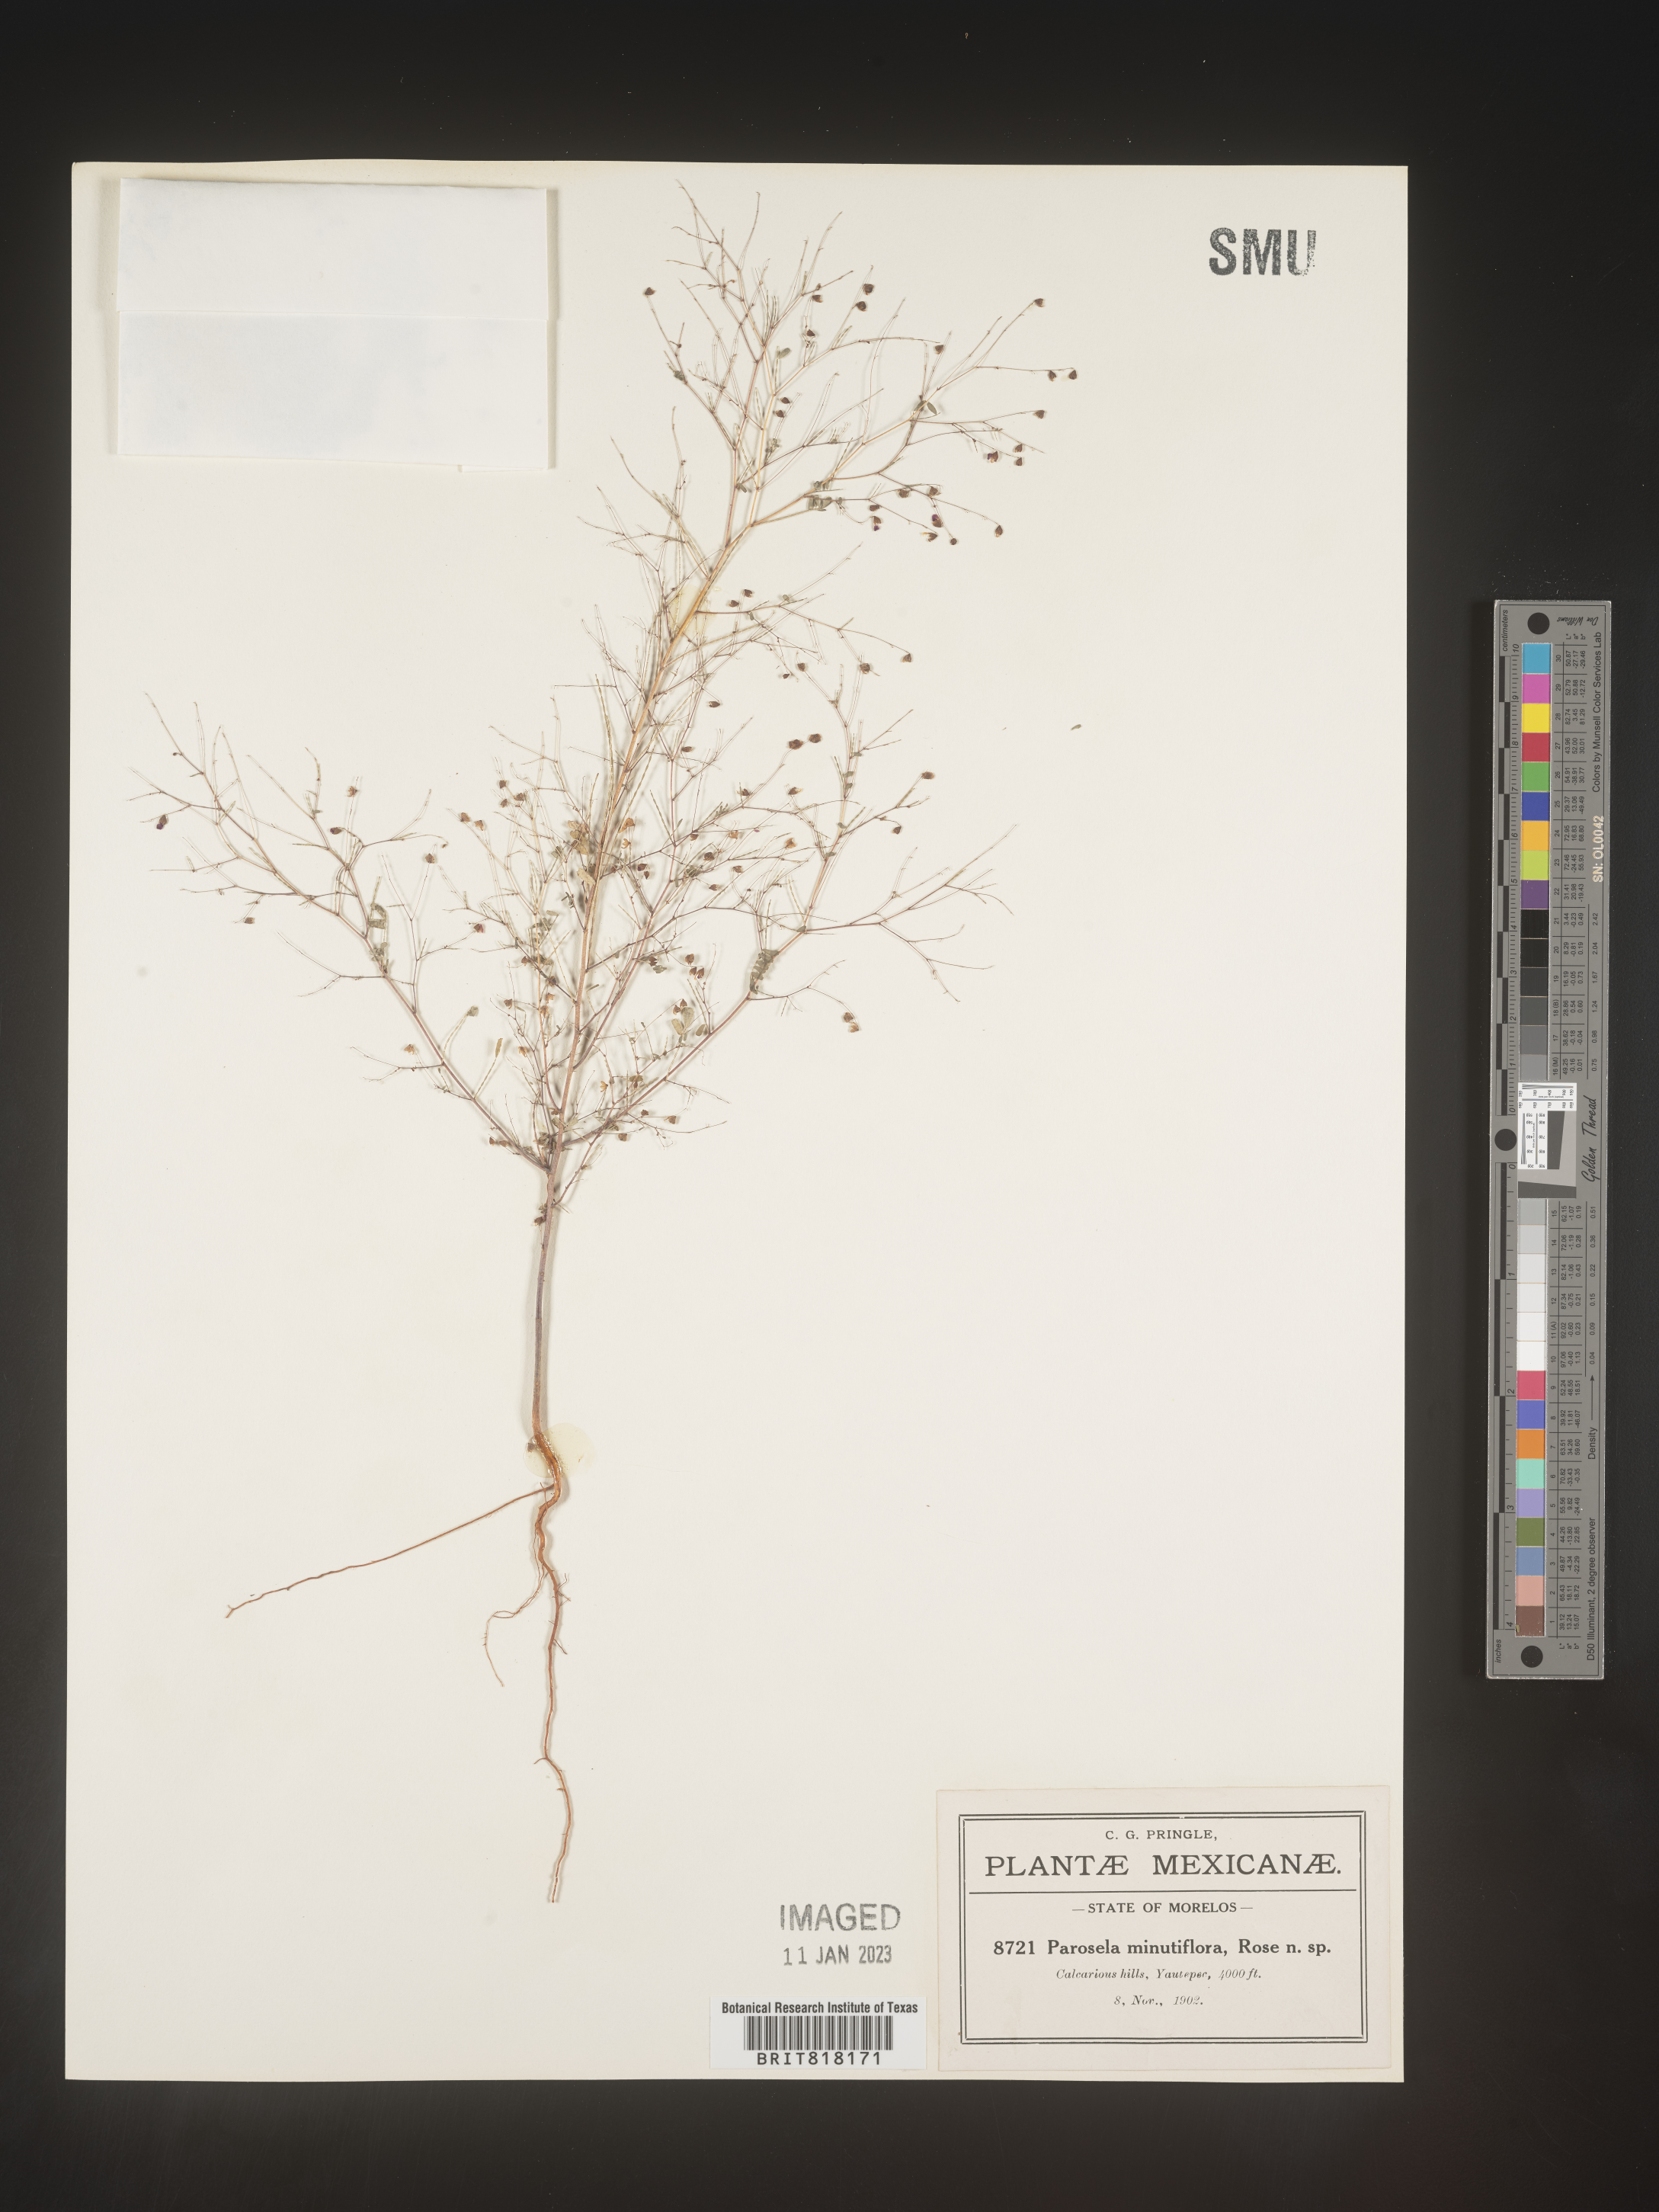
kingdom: Plantae
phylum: Tracheophyta
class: Magnoliopsida
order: Fabales
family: Fabaceae
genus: Dalea
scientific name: Dalea
